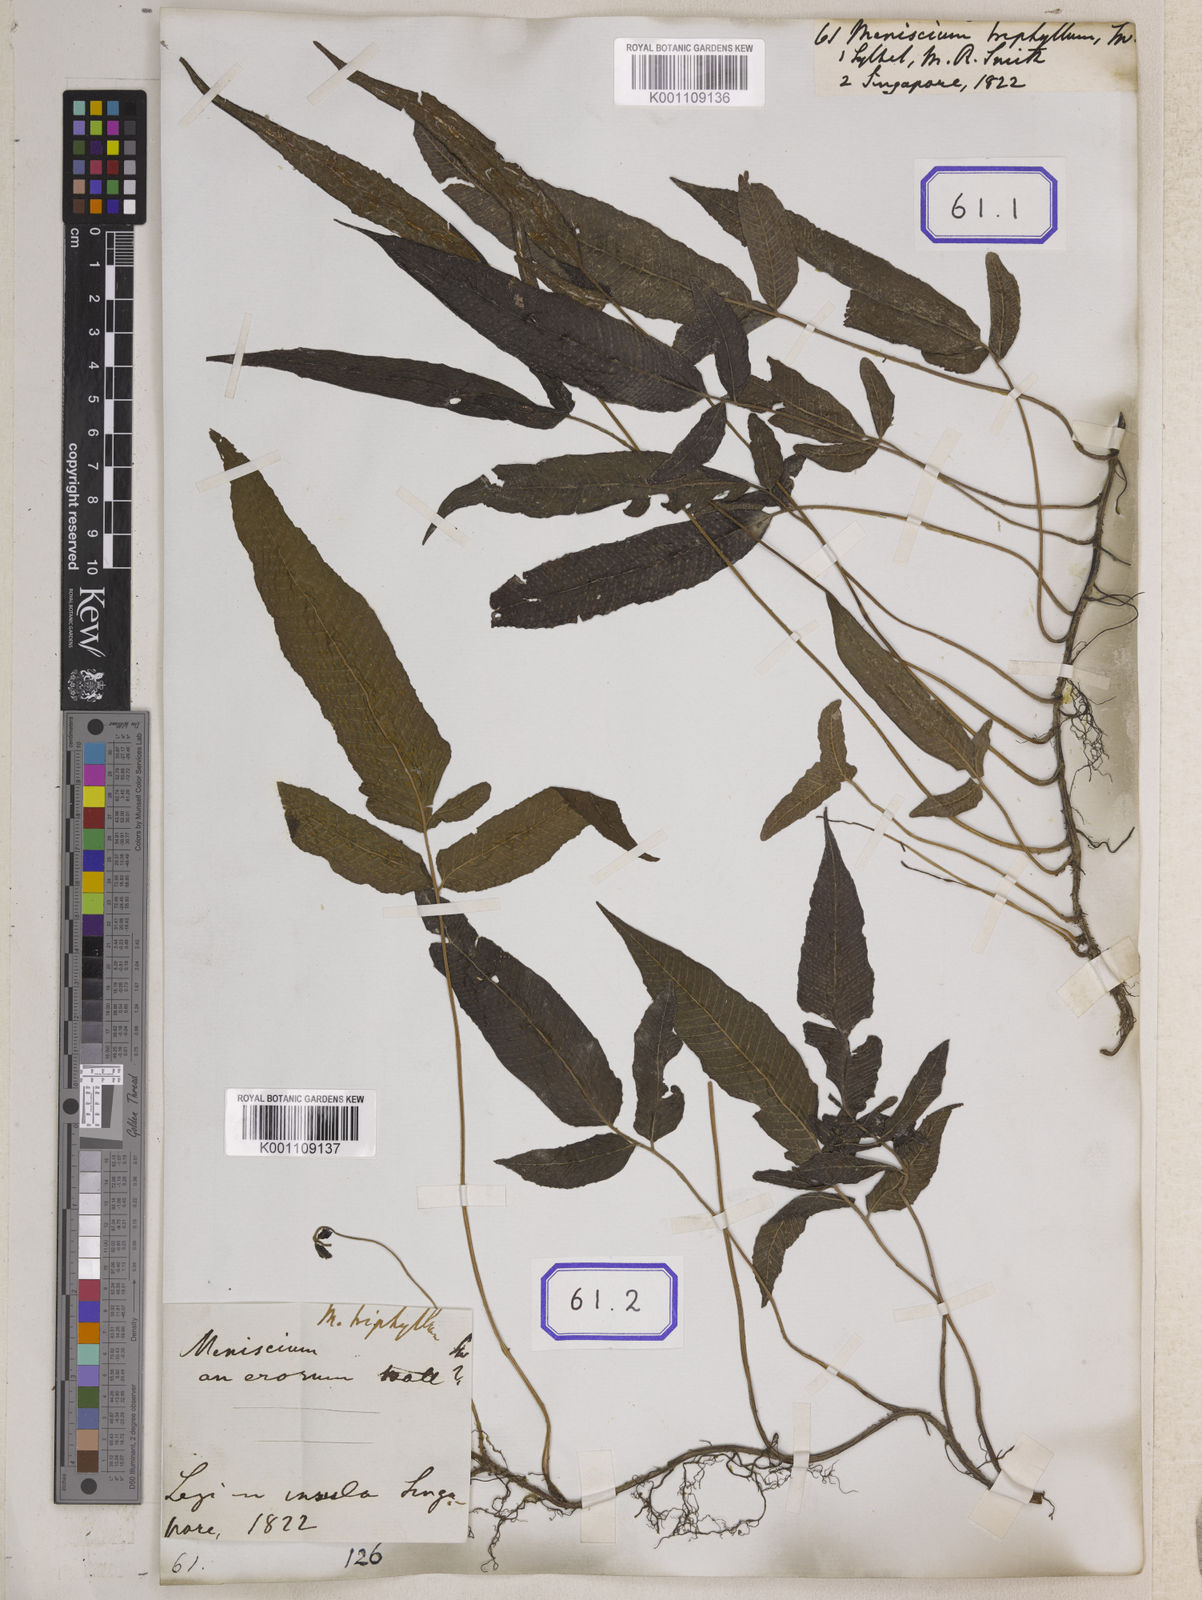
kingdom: Plantae
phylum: Tracheophyta
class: Polypodiopsida
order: Polypodiales
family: Thelypteridaceae
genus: Grypothrix
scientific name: Grypothrix triphylla
